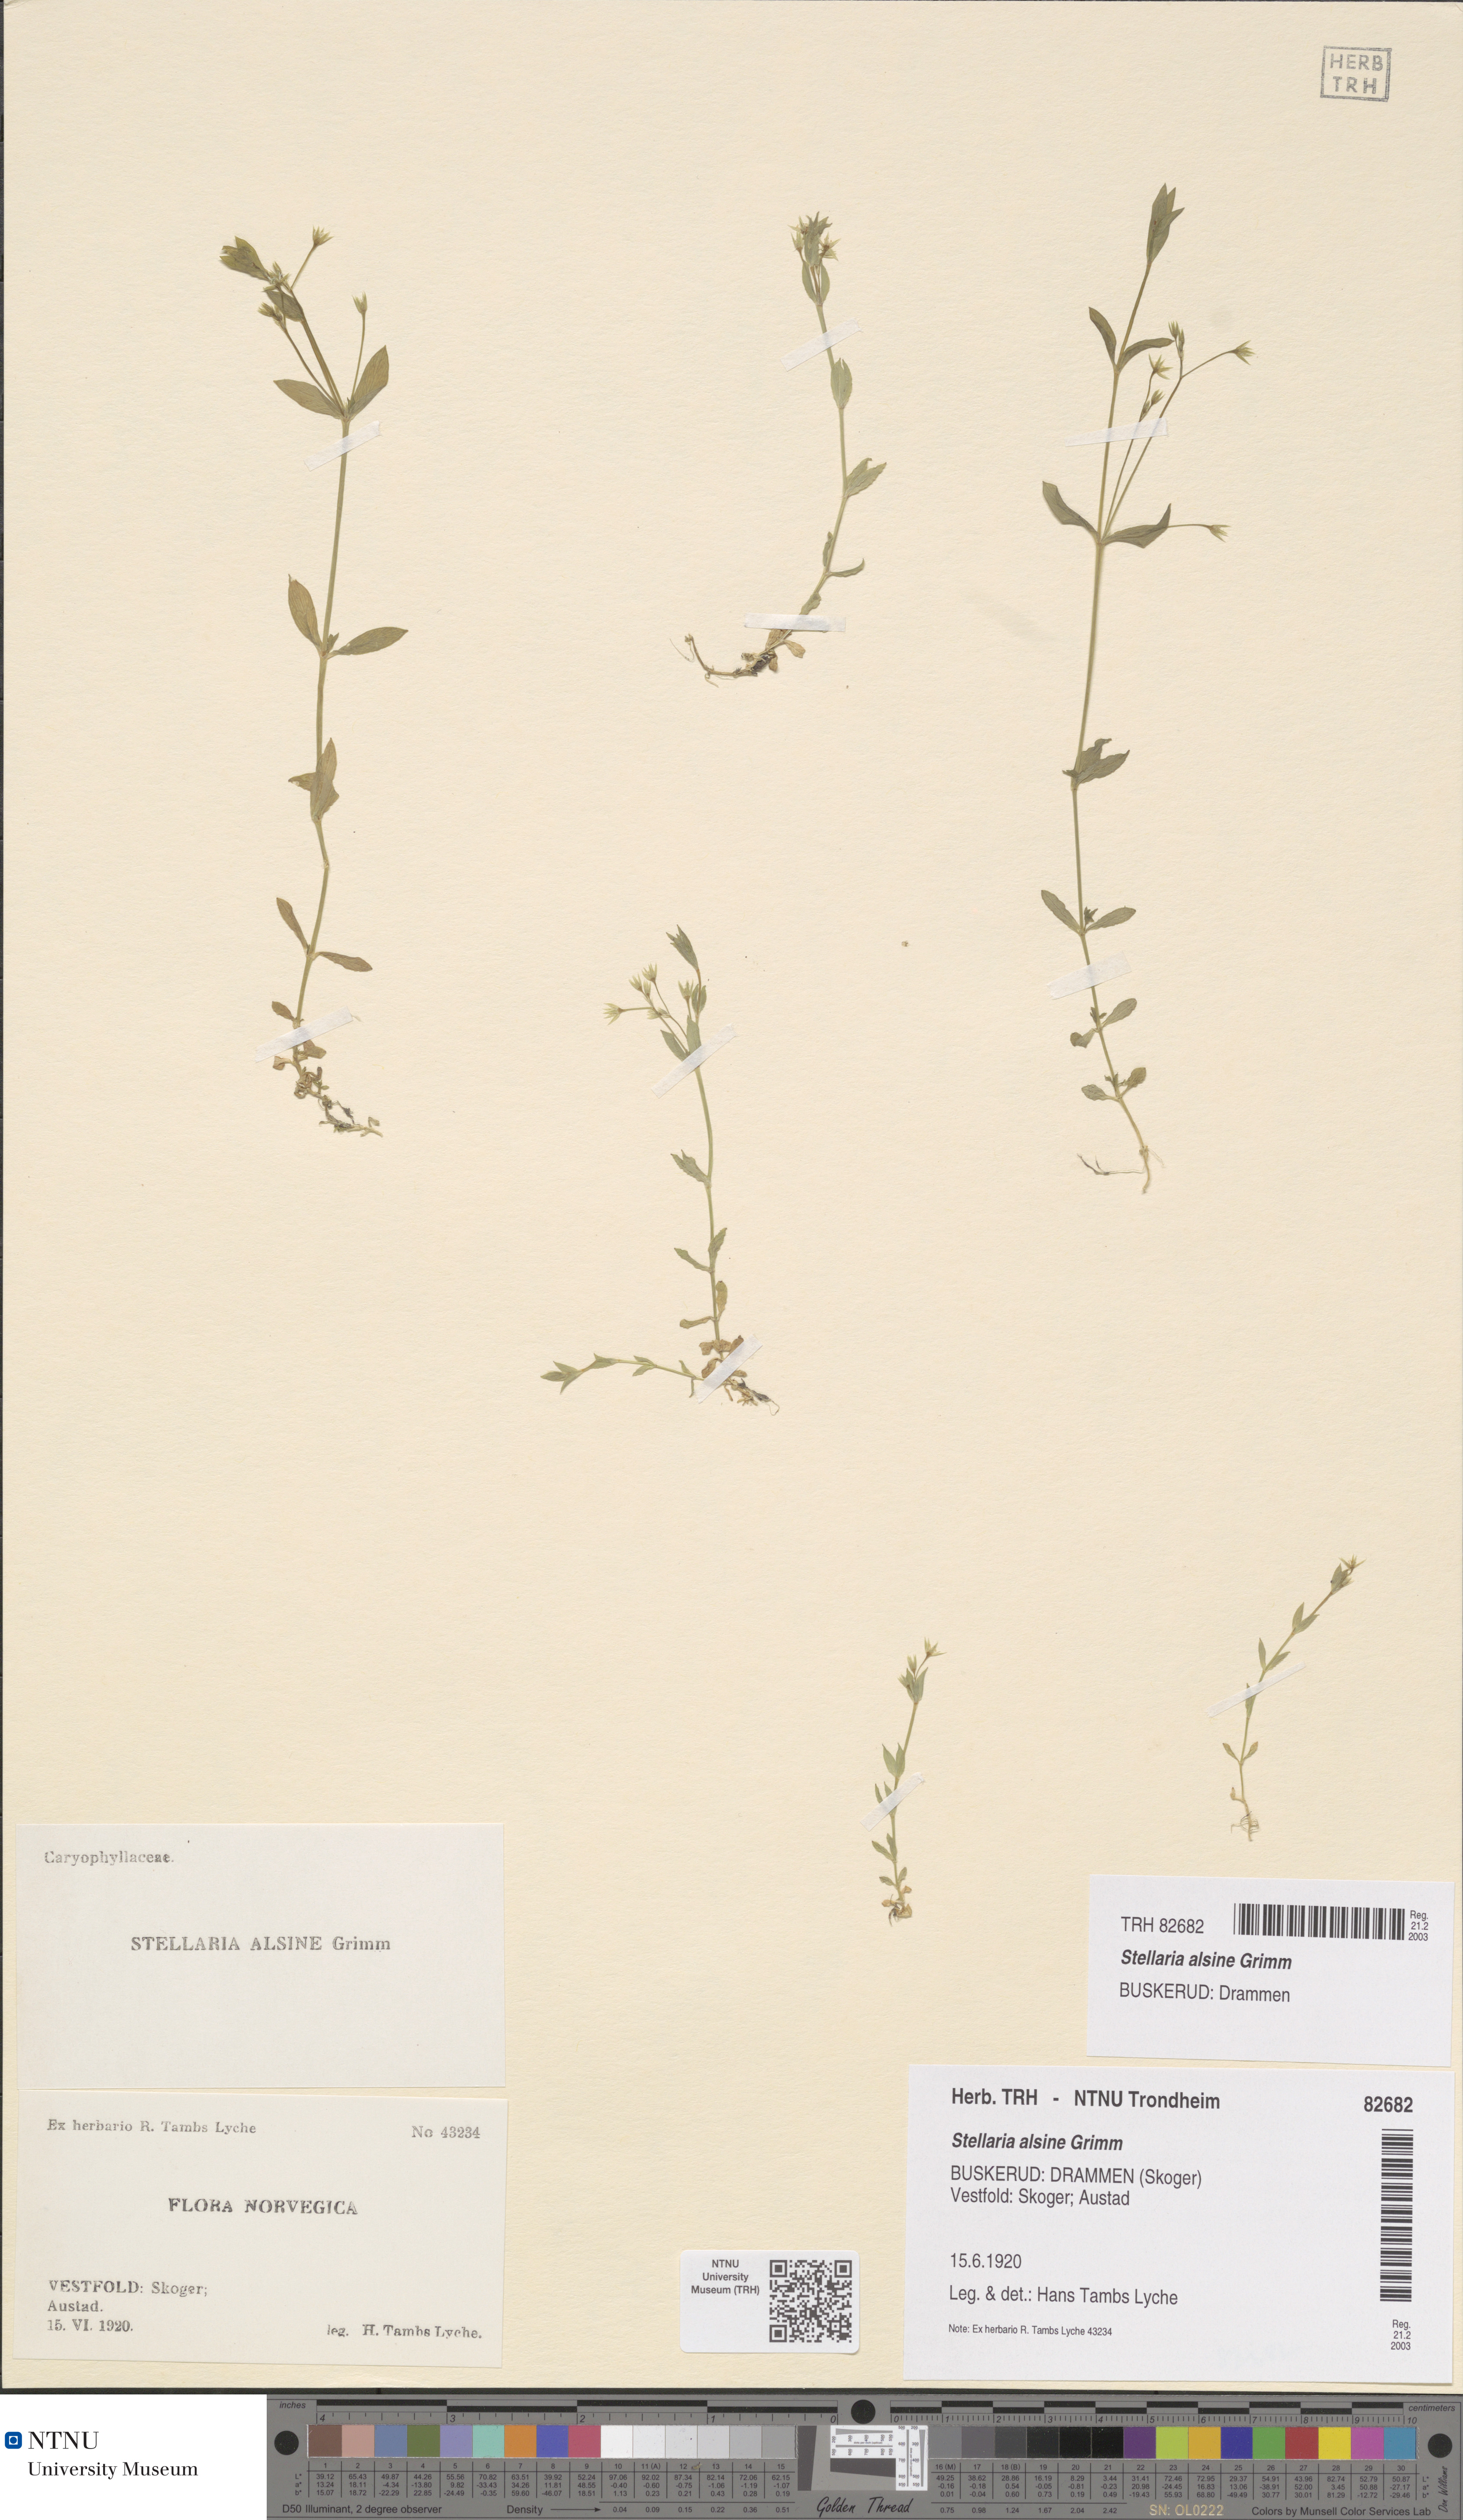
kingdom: Plantae
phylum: Tracheophyta
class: Magnoliopsida
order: Caryophyllales
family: Caryophyllaceae
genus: Stellaria
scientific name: Stellaria alsine
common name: Bog stitchwort
